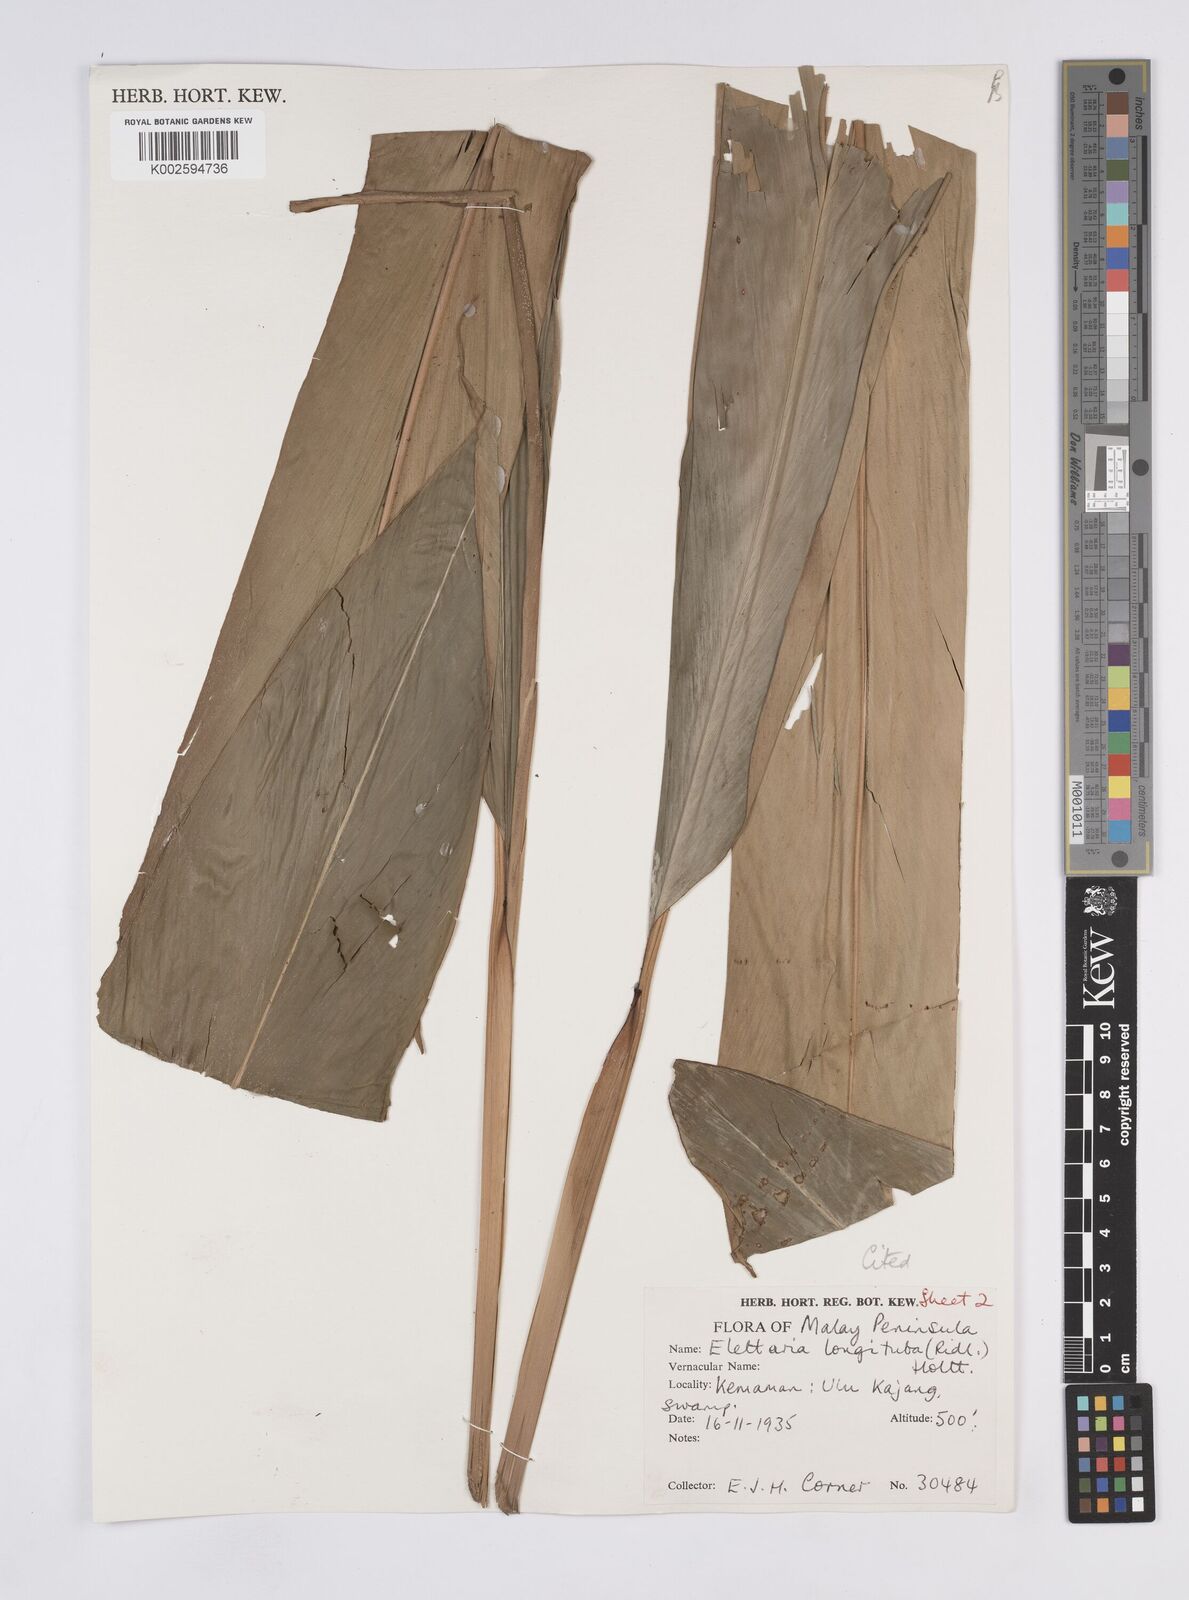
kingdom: Plantae
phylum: Tracheophyta
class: Liliopsida
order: Zingiberales
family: Zingiberaceae
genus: Sulettaria
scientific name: Sulettaria longituba
